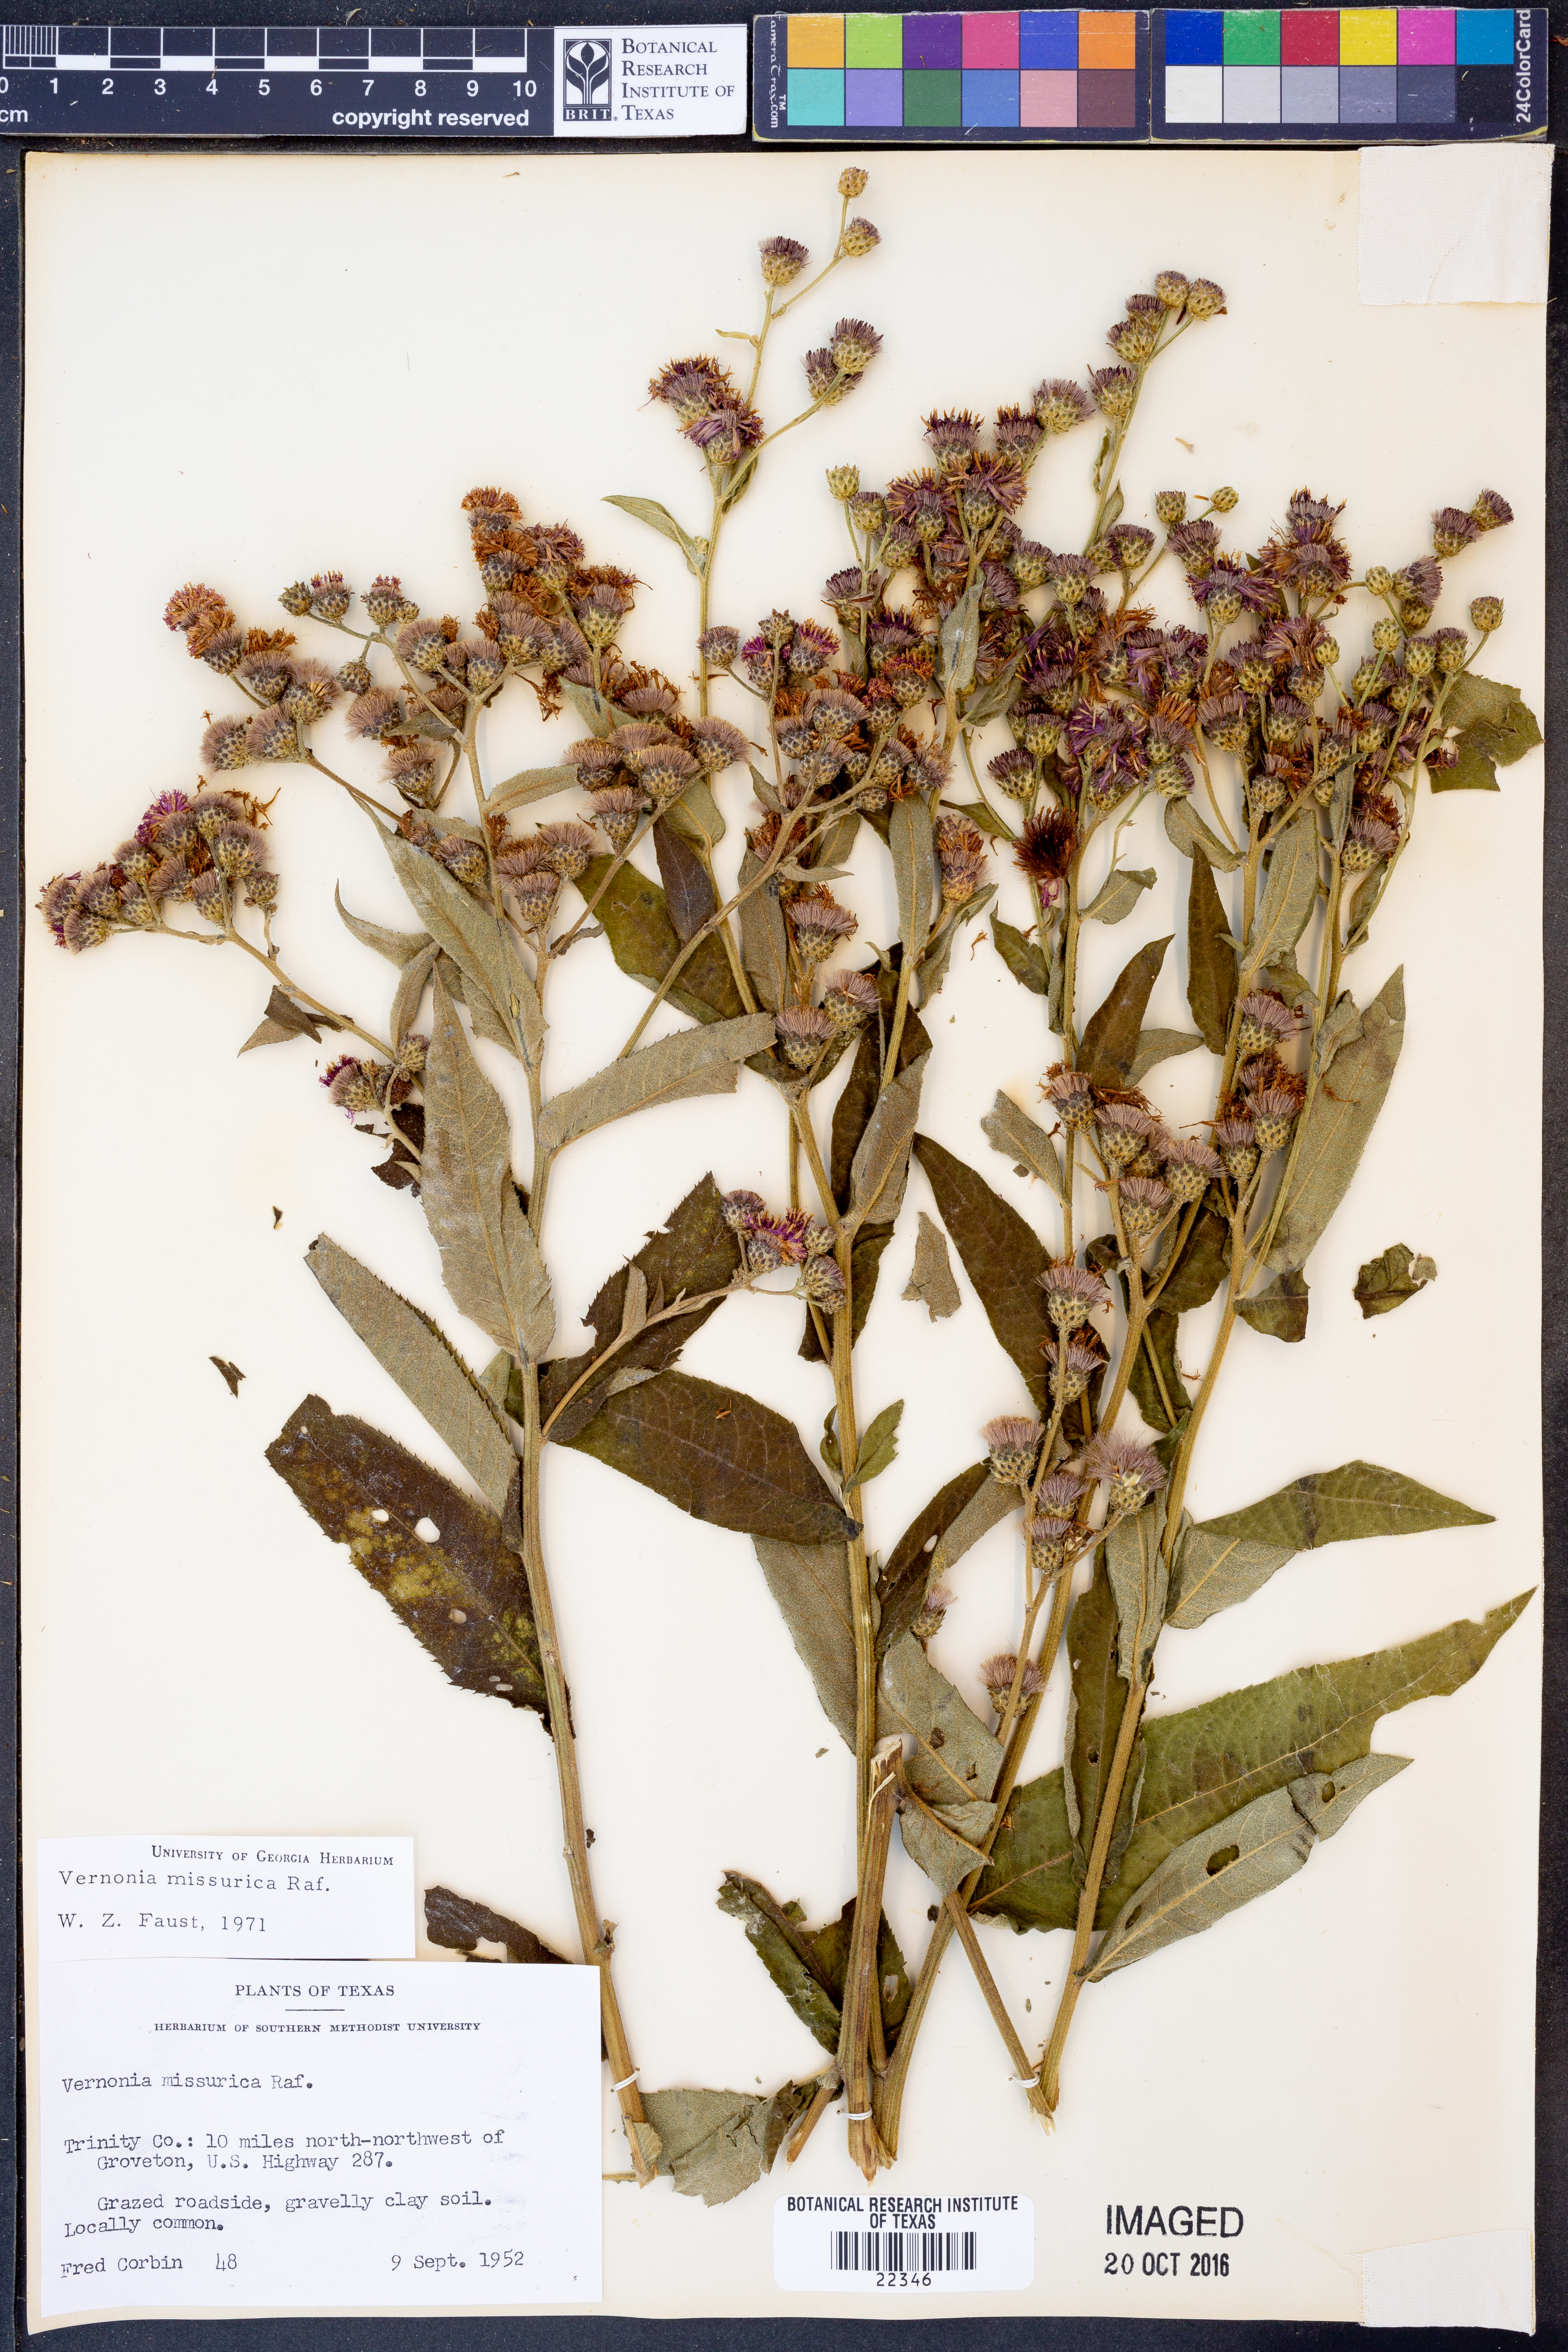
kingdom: Plantae
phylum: Tracheophyta
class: Magnoliopsida
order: Asterales
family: Asteraceae
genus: Vernonia
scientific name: Vernonia missurica
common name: Missouri ironweed
